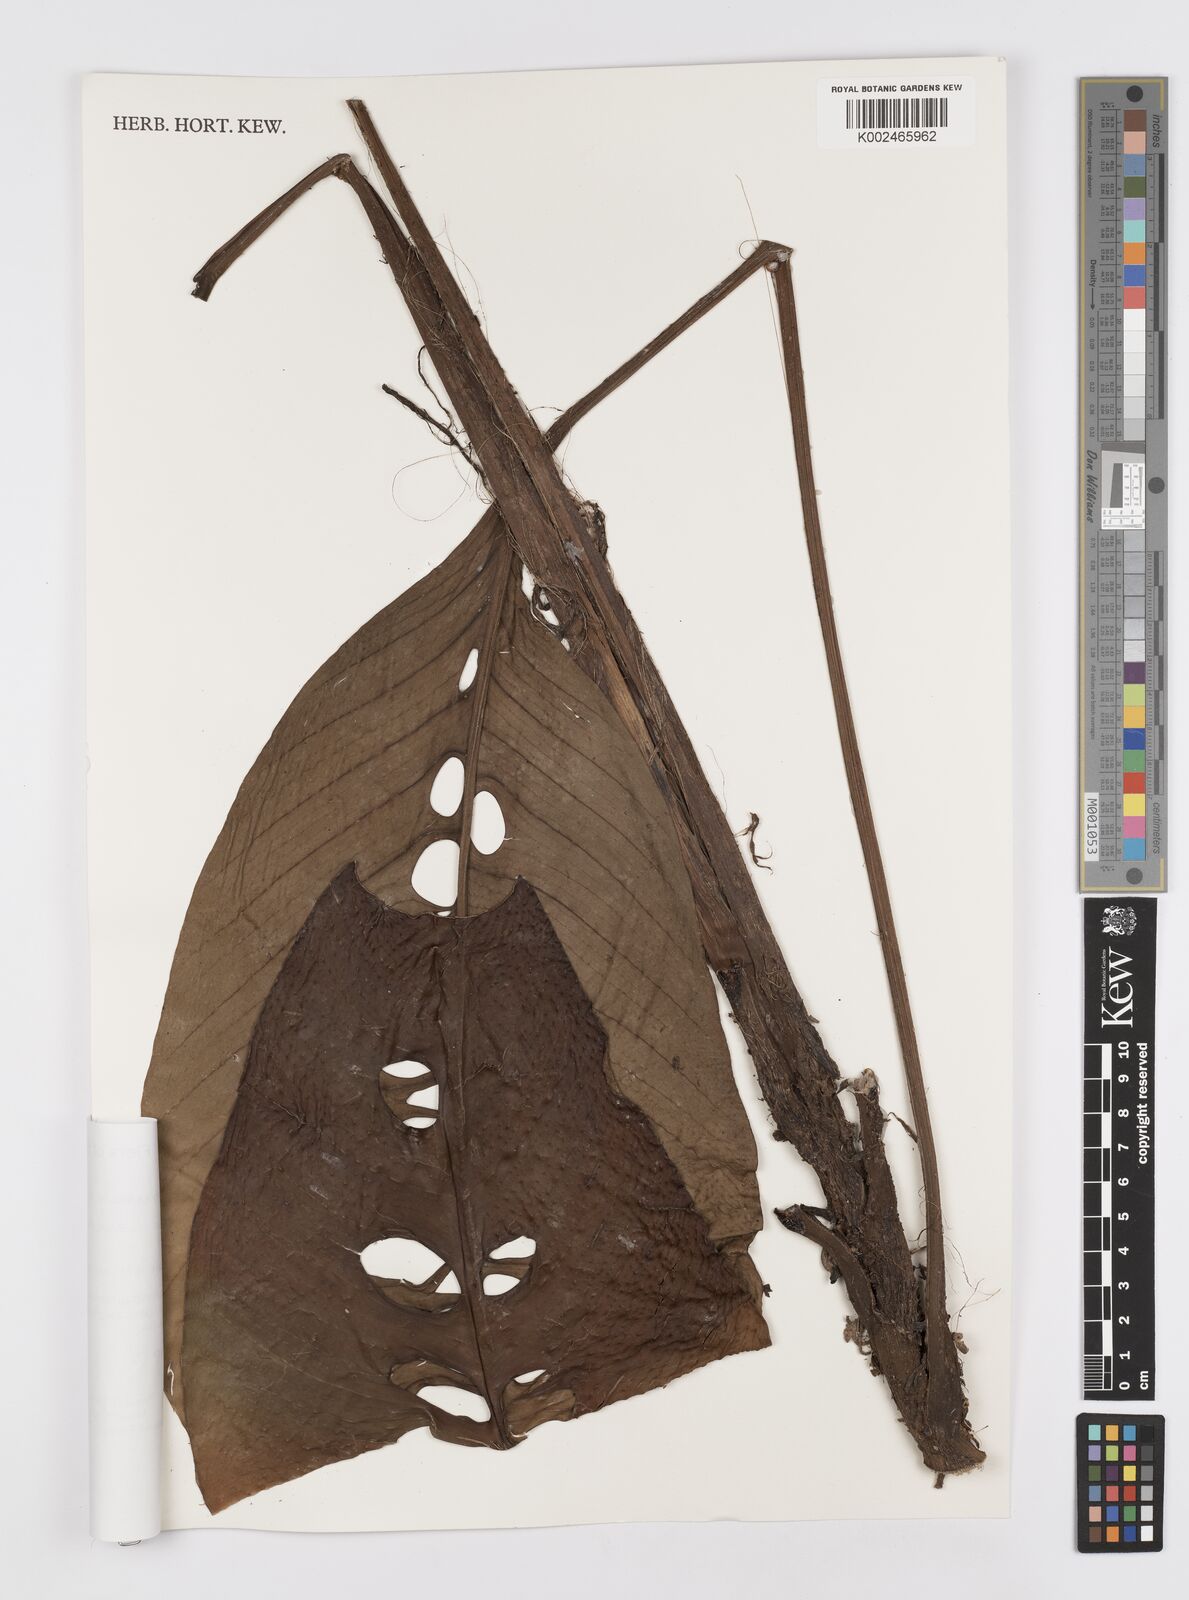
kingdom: Plantae
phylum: Tracheophyta
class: Liliopsida
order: Alismatales
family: Araceae
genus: Rhaphidophora
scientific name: Rhaphidophora foraminifera
